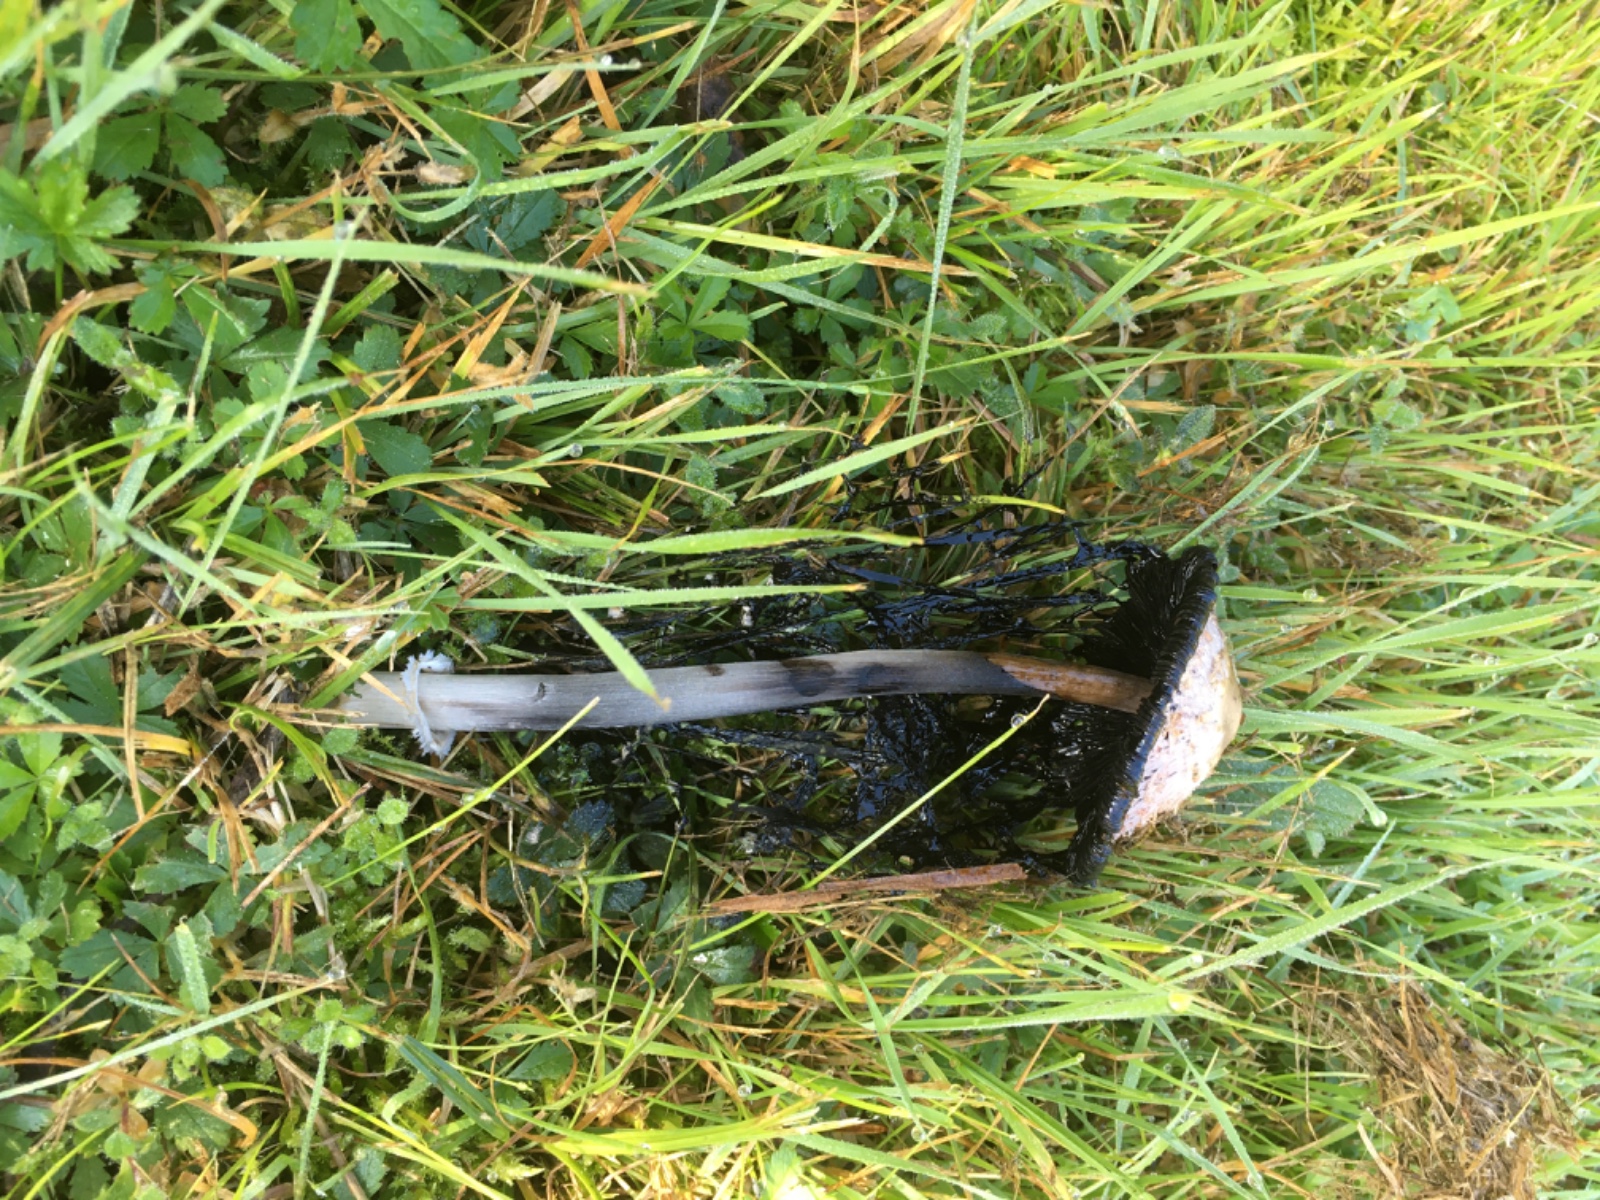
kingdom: Fungi
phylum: Basidiomycota
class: Agaricomycetes
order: Agaricales
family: Agaricaceae
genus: Coprinus
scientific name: Coprinus comatus
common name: stor parykhat
